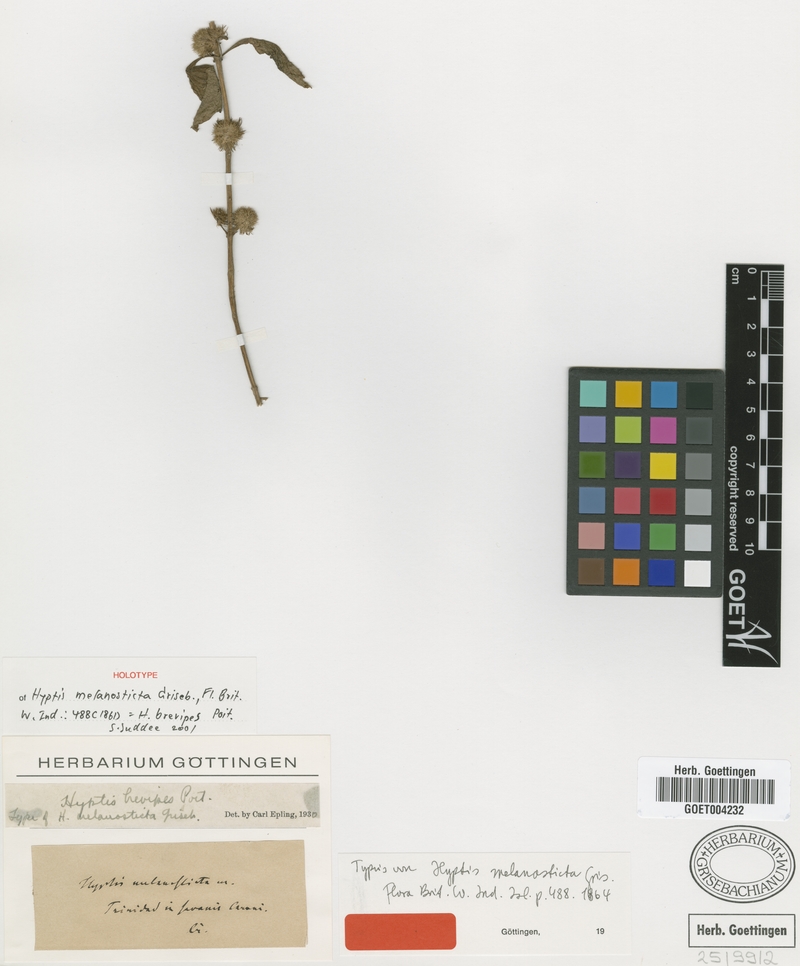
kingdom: Plantae
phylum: Tracheophyta
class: Magnoliopsida
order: Lamiales
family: Lamiaceae
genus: Hyptis
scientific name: Hyptis brevipes
